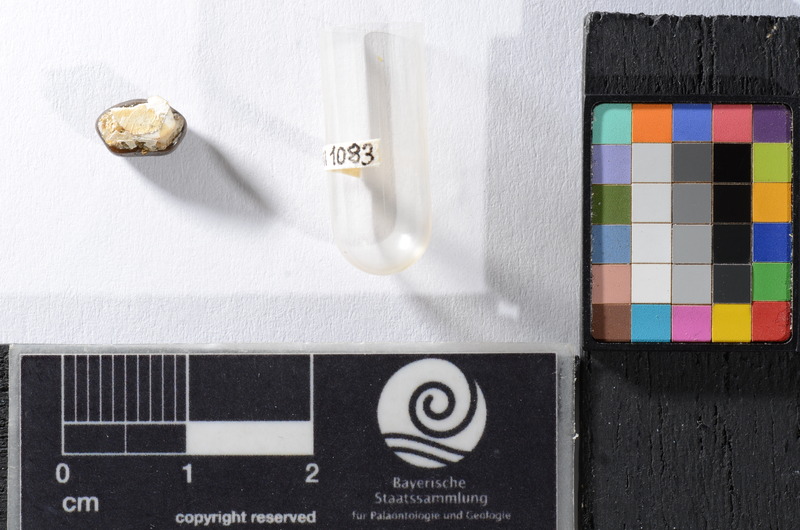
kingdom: Animalia
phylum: Chordata
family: Pycnodontidae
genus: Anomoeodus
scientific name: Anomoeodus
